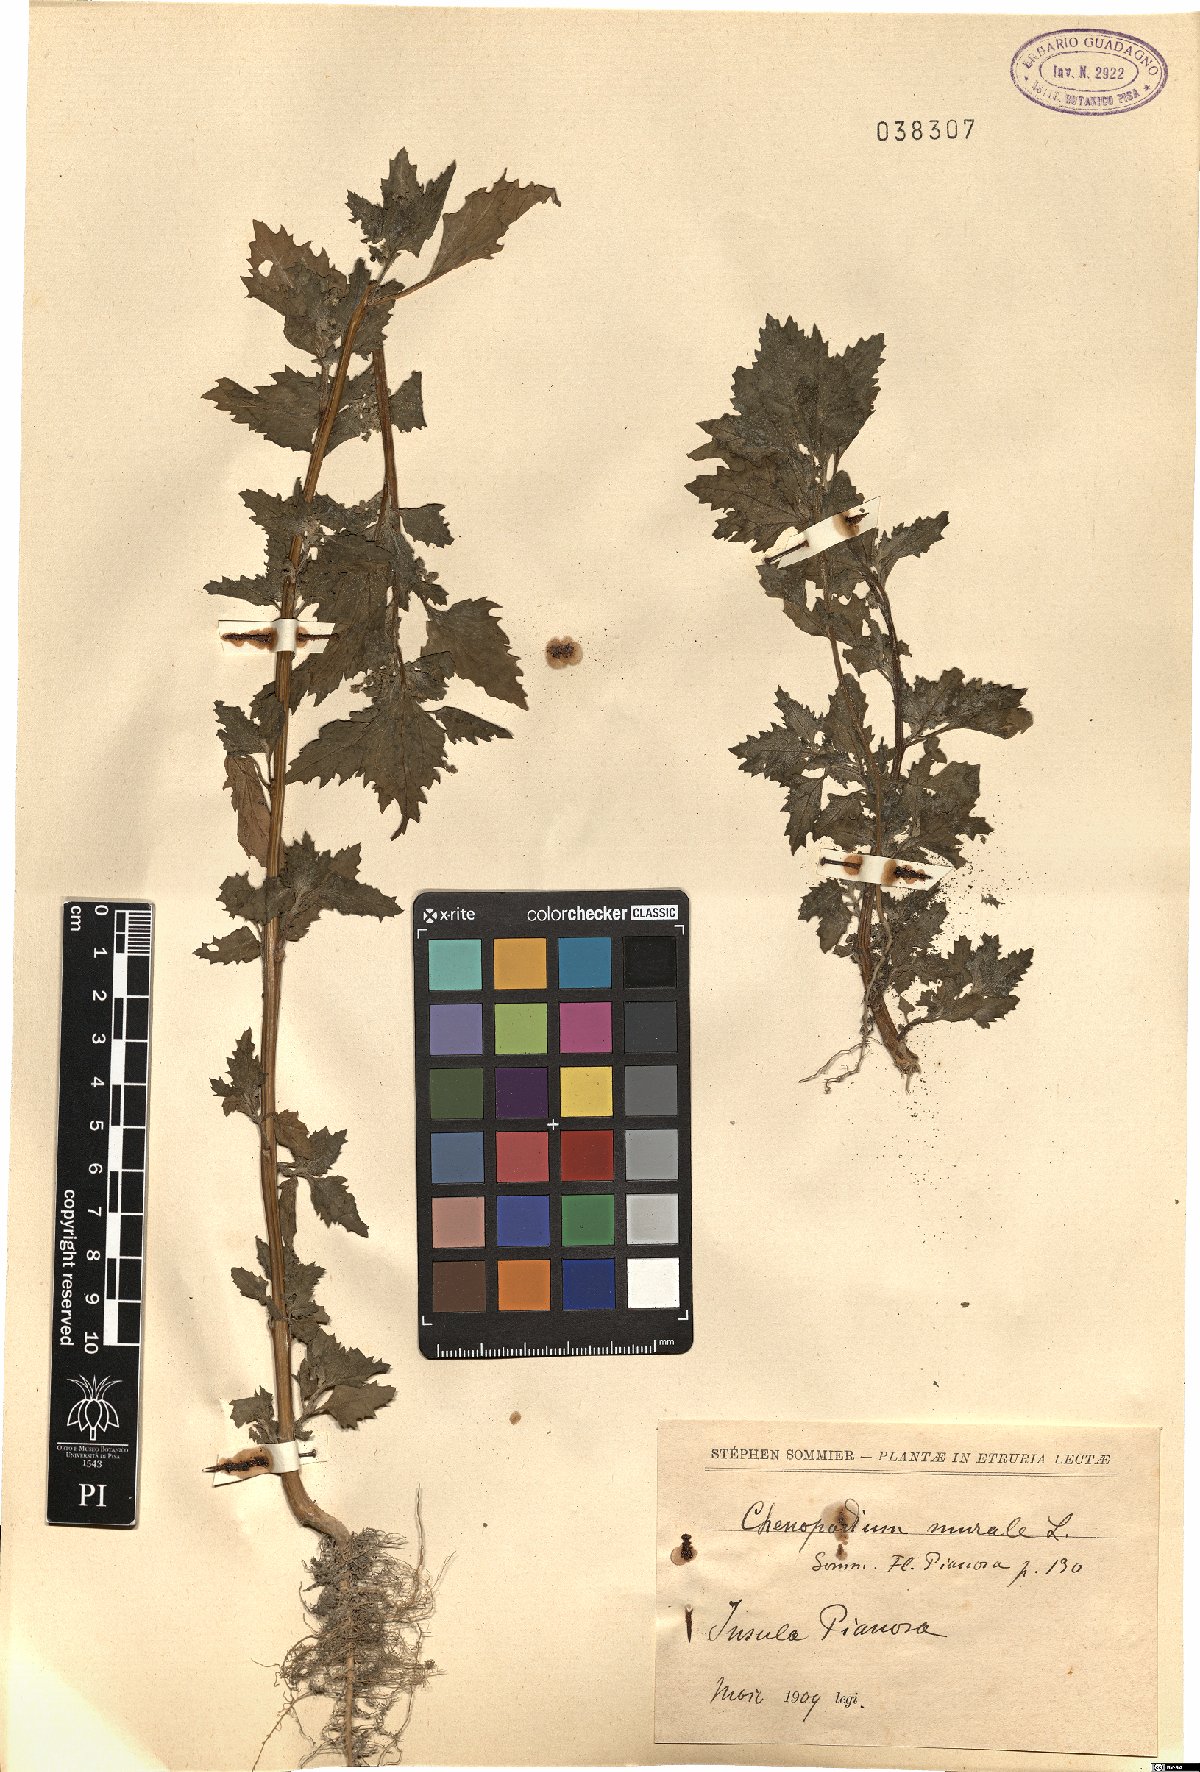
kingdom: Plantae
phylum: Tracheophyta
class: Magnoliopsida
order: Caryophyllales
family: Amaranthaceae
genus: Chenopodiastrum
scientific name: Chenopodiastrum murale
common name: Sowbane
